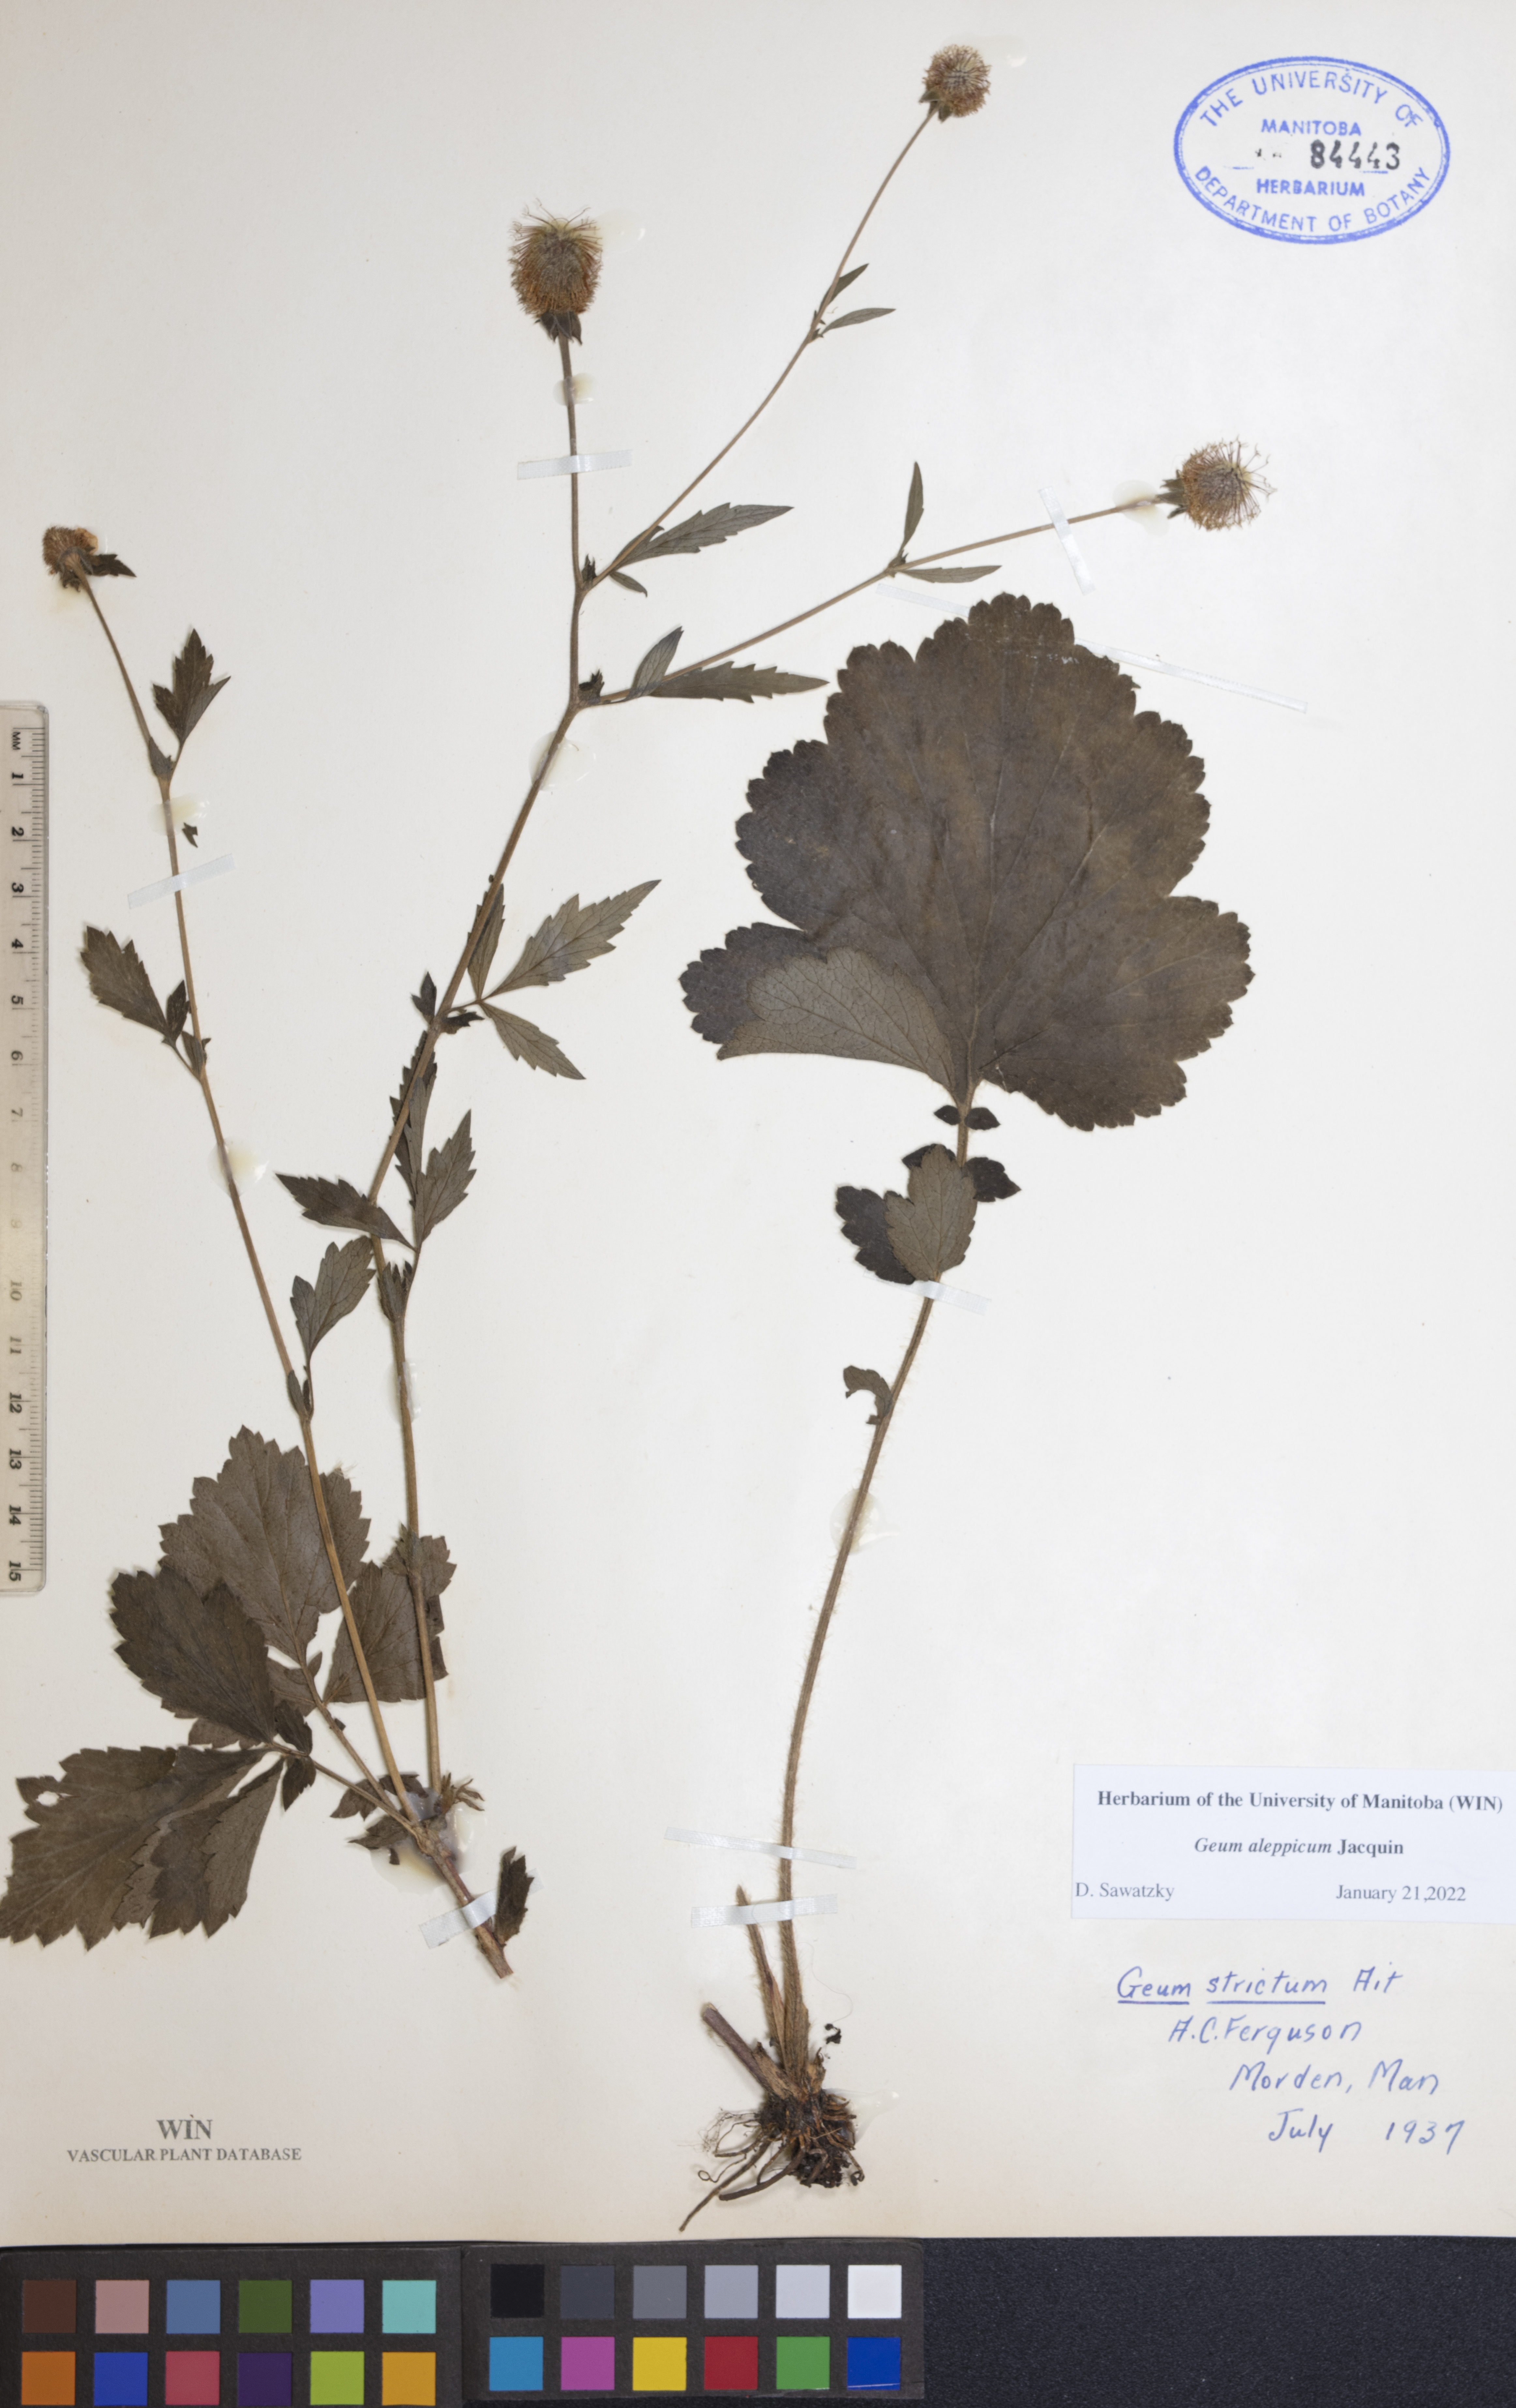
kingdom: Plantae
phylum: Tracheophyta
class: Magnoliopsida
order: Rosales
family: Rosaceae
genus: Geum
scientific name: Geum aleppicum
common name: Yellow avens
